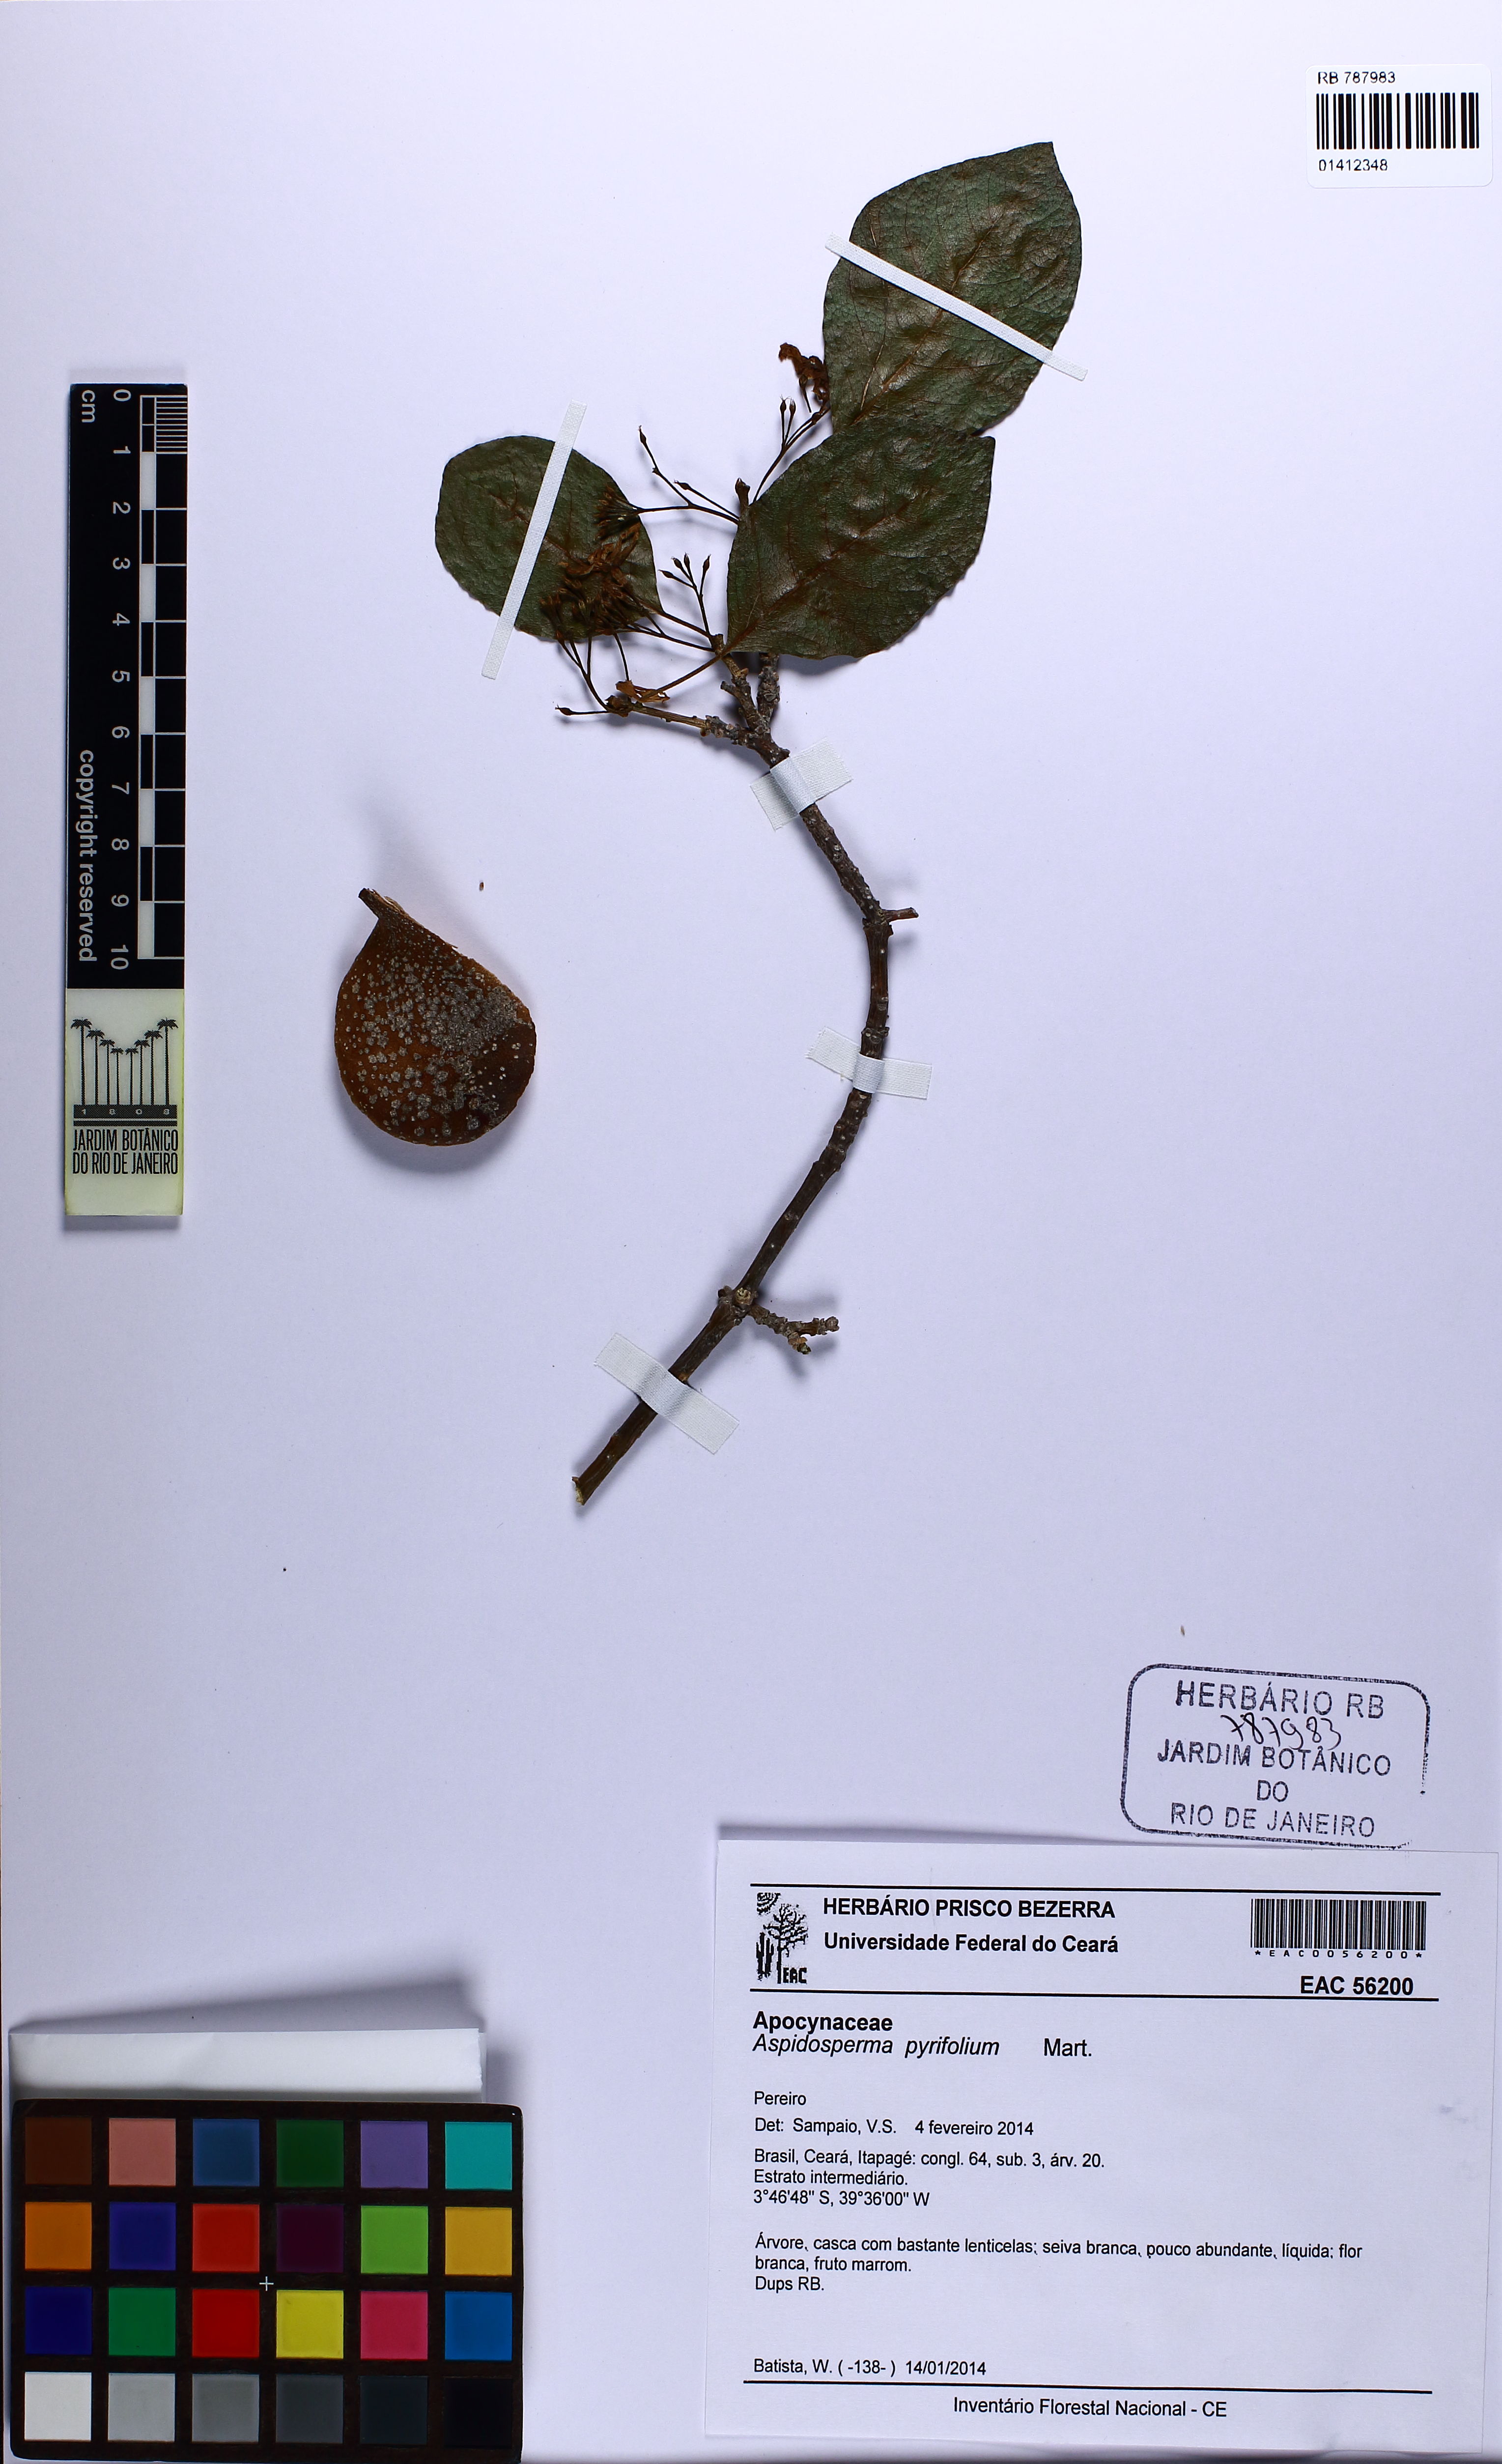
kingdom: Plantae
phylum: Tracheophyta
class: Magnoliopsida
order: Gentianales
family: Apocynaceae
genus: Aspidosperma
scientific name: Aspidosperma pyrifolium
